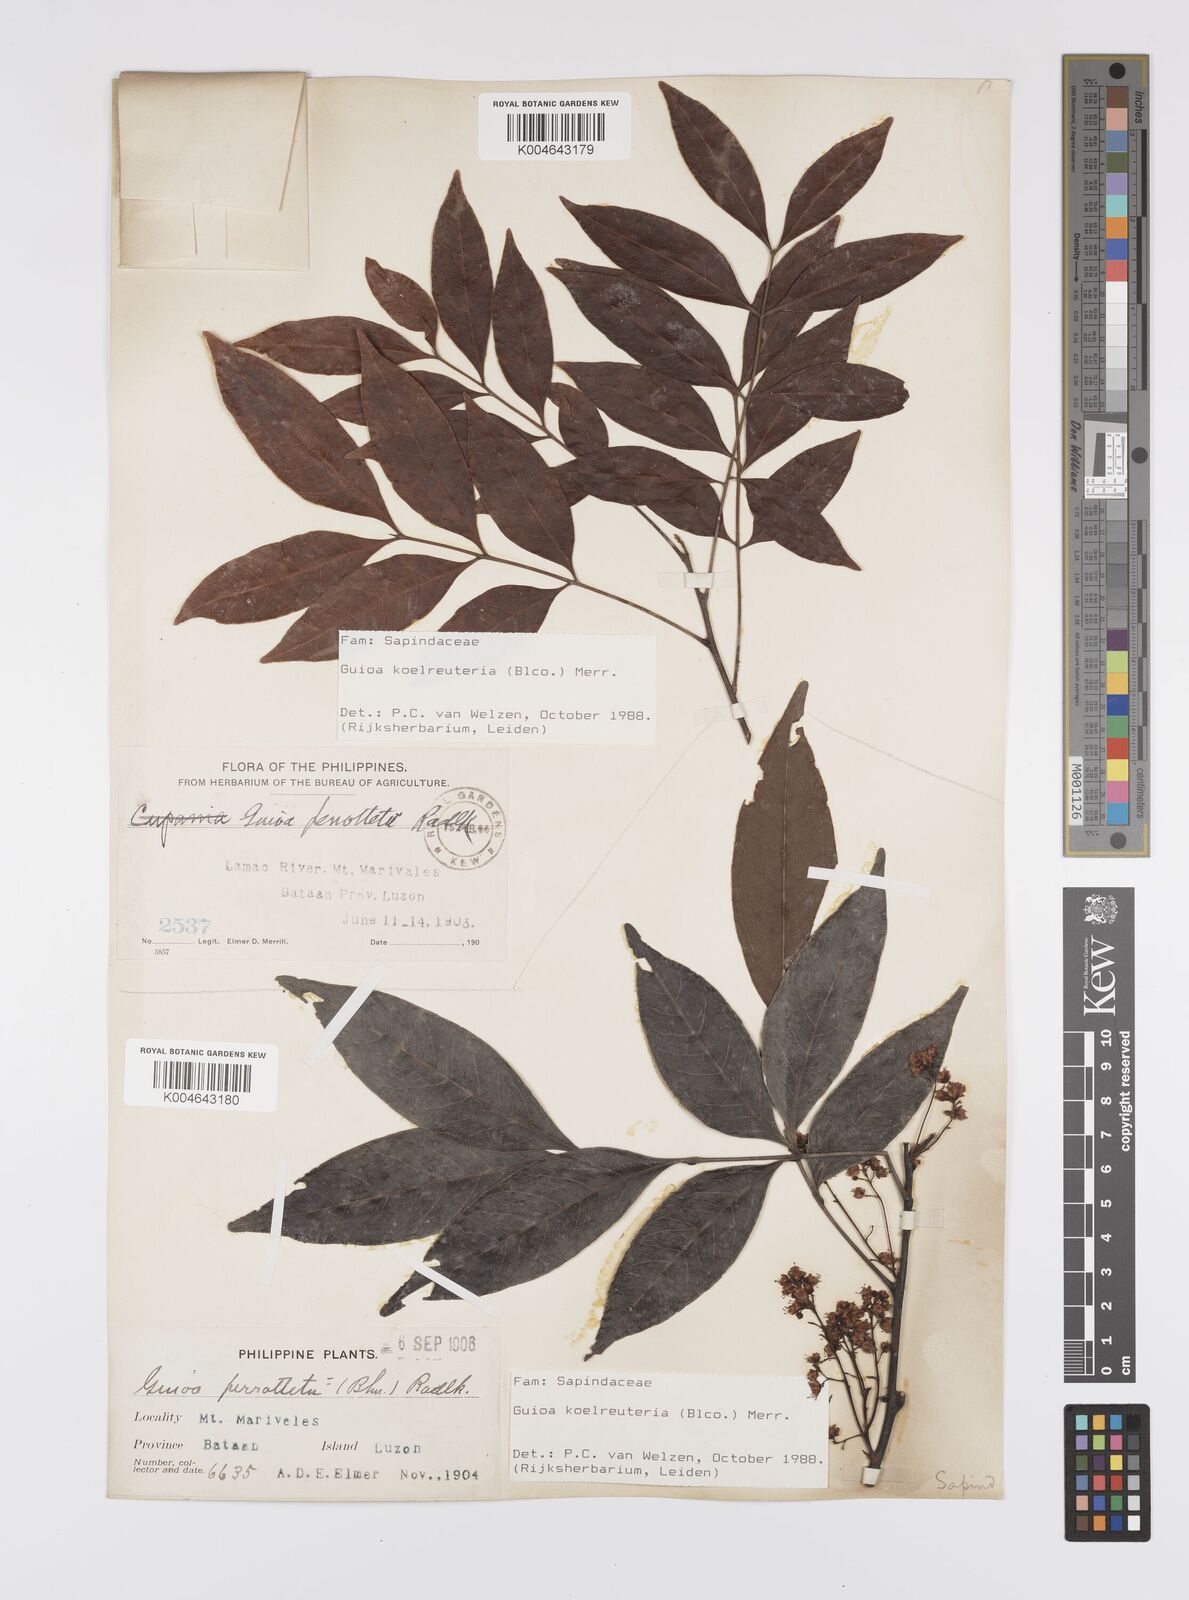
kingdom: Plantae
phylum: Tracheophyta
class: Magnoliopsida
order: Sapindales
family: Sapindaceae
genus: Guioa
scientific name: Guioa koelreuteria
